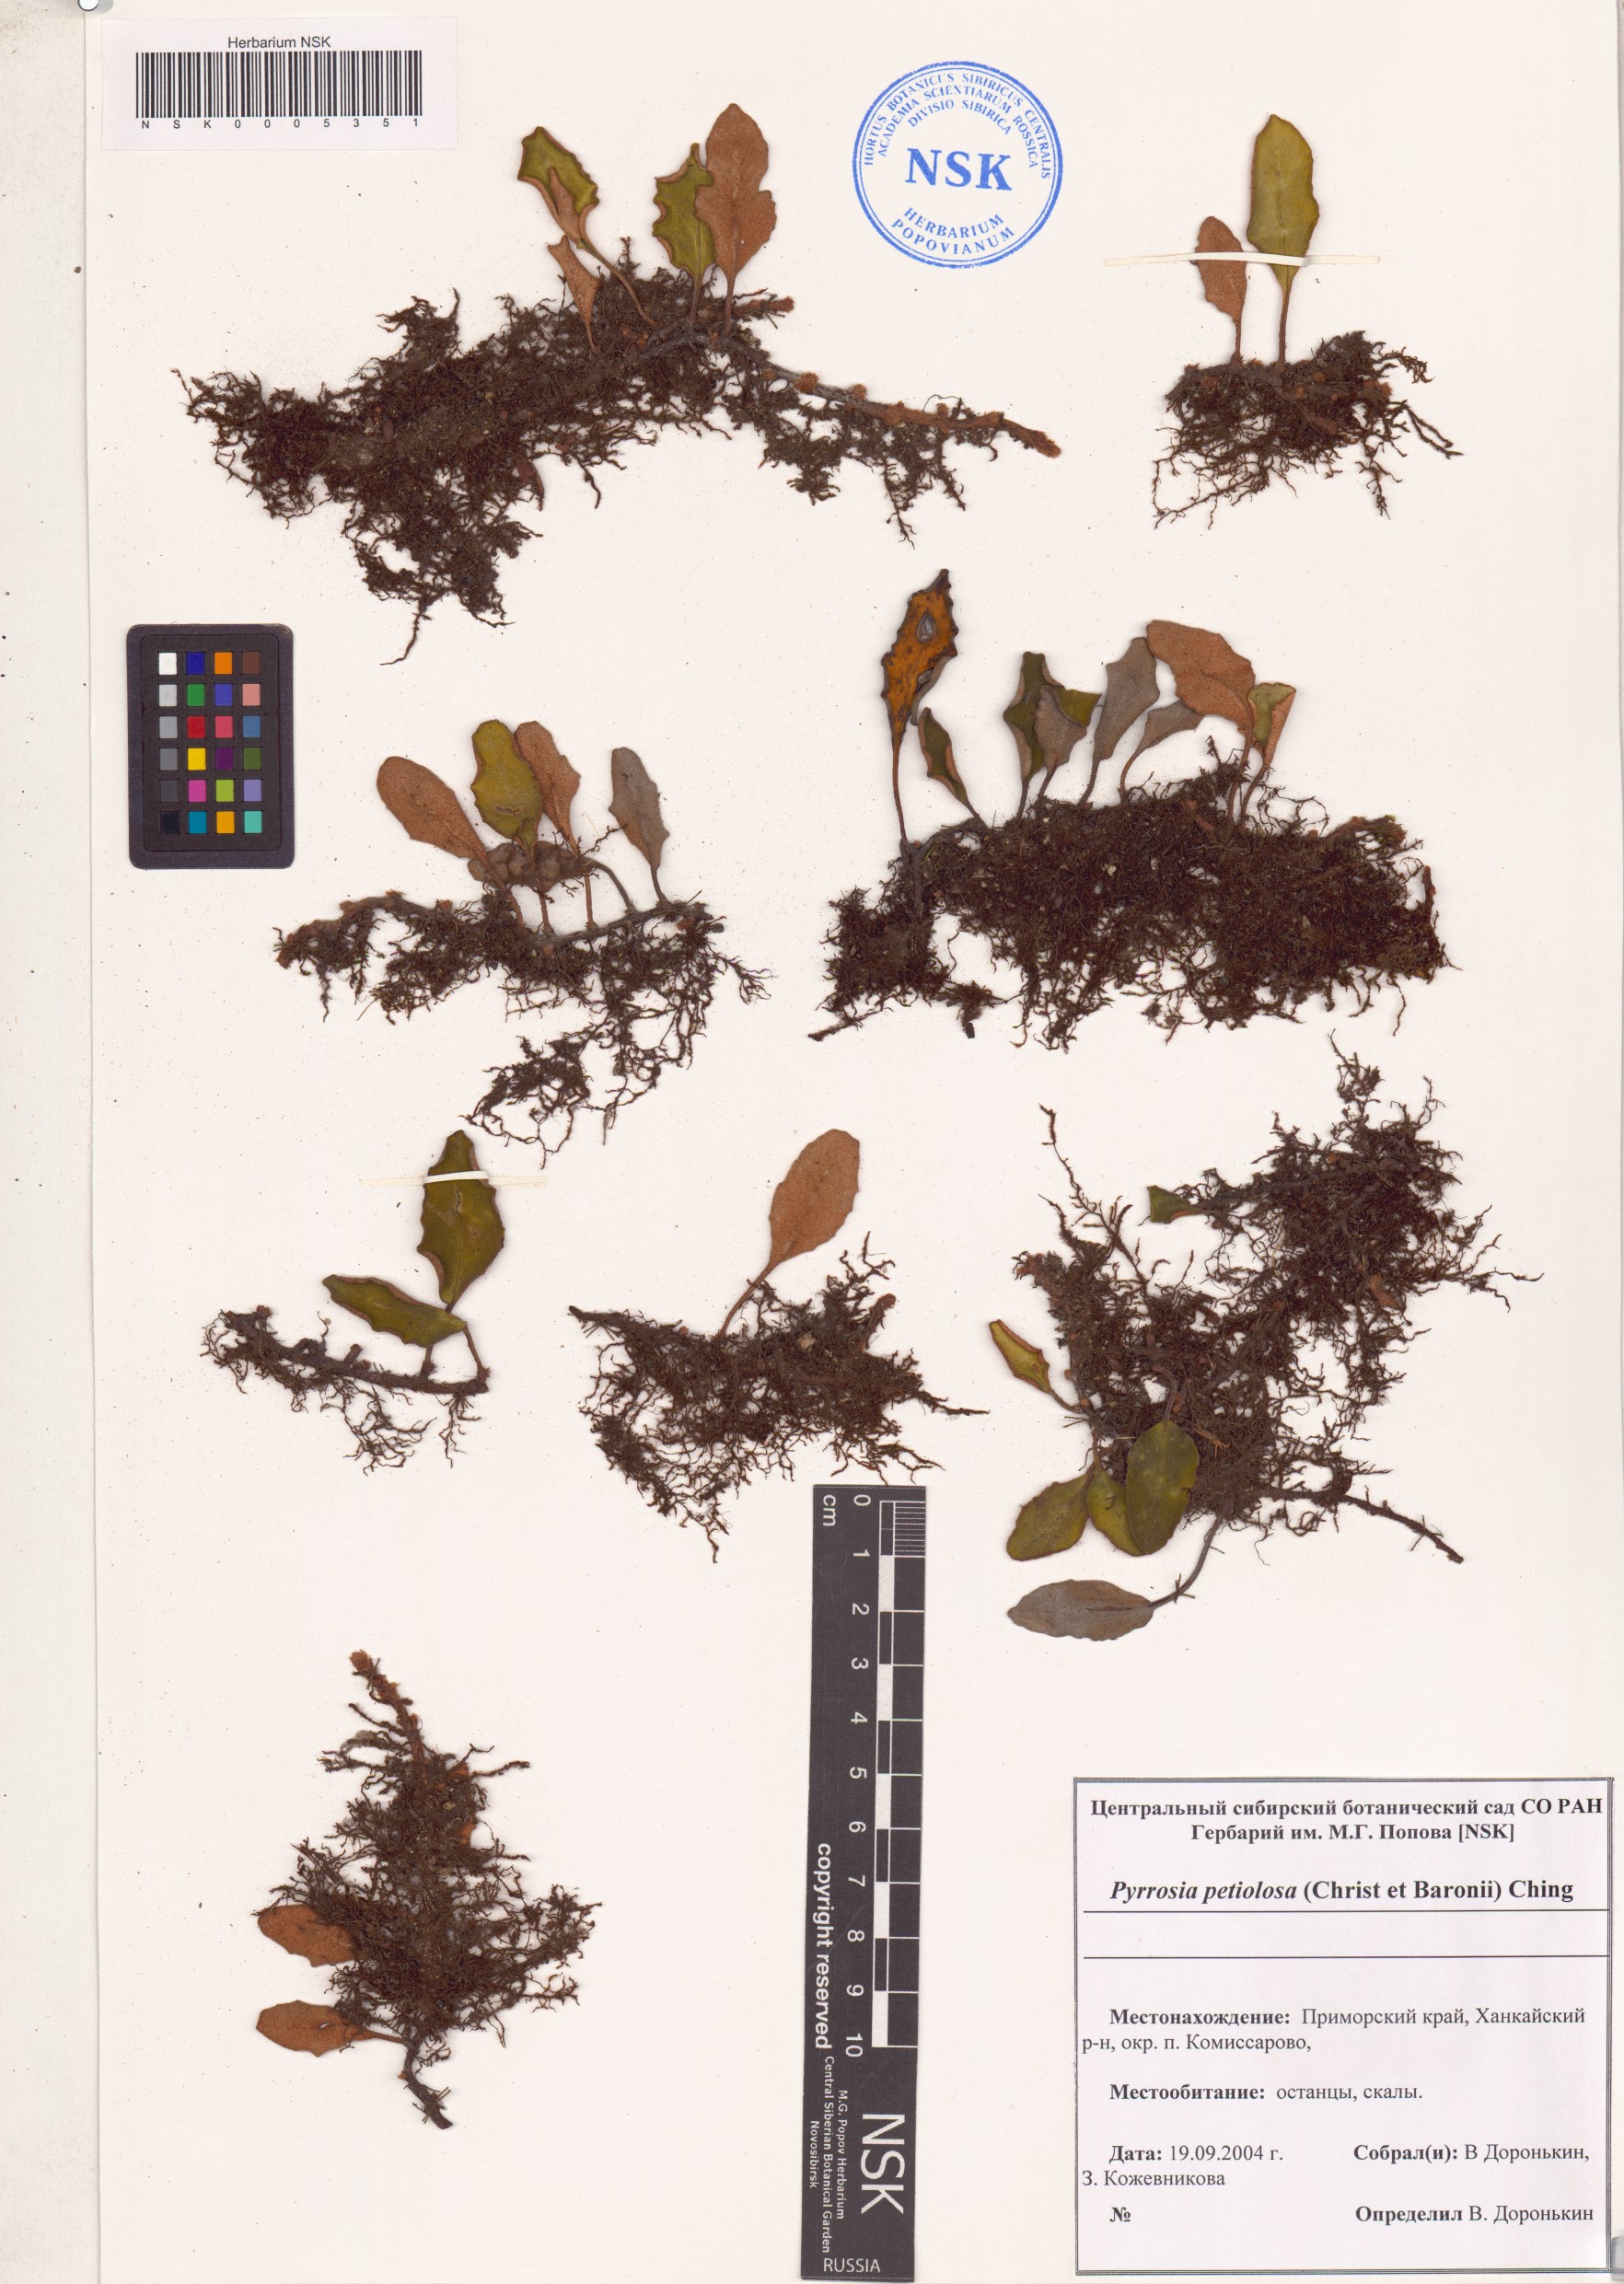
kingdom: Plantae
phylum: Tracheophyta
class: Polypodiopsida
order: Polypodiales
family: Polypodiaceae
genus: Pyrrosia
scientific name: Pyrrosia petiolosa
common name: Pyrrosia
